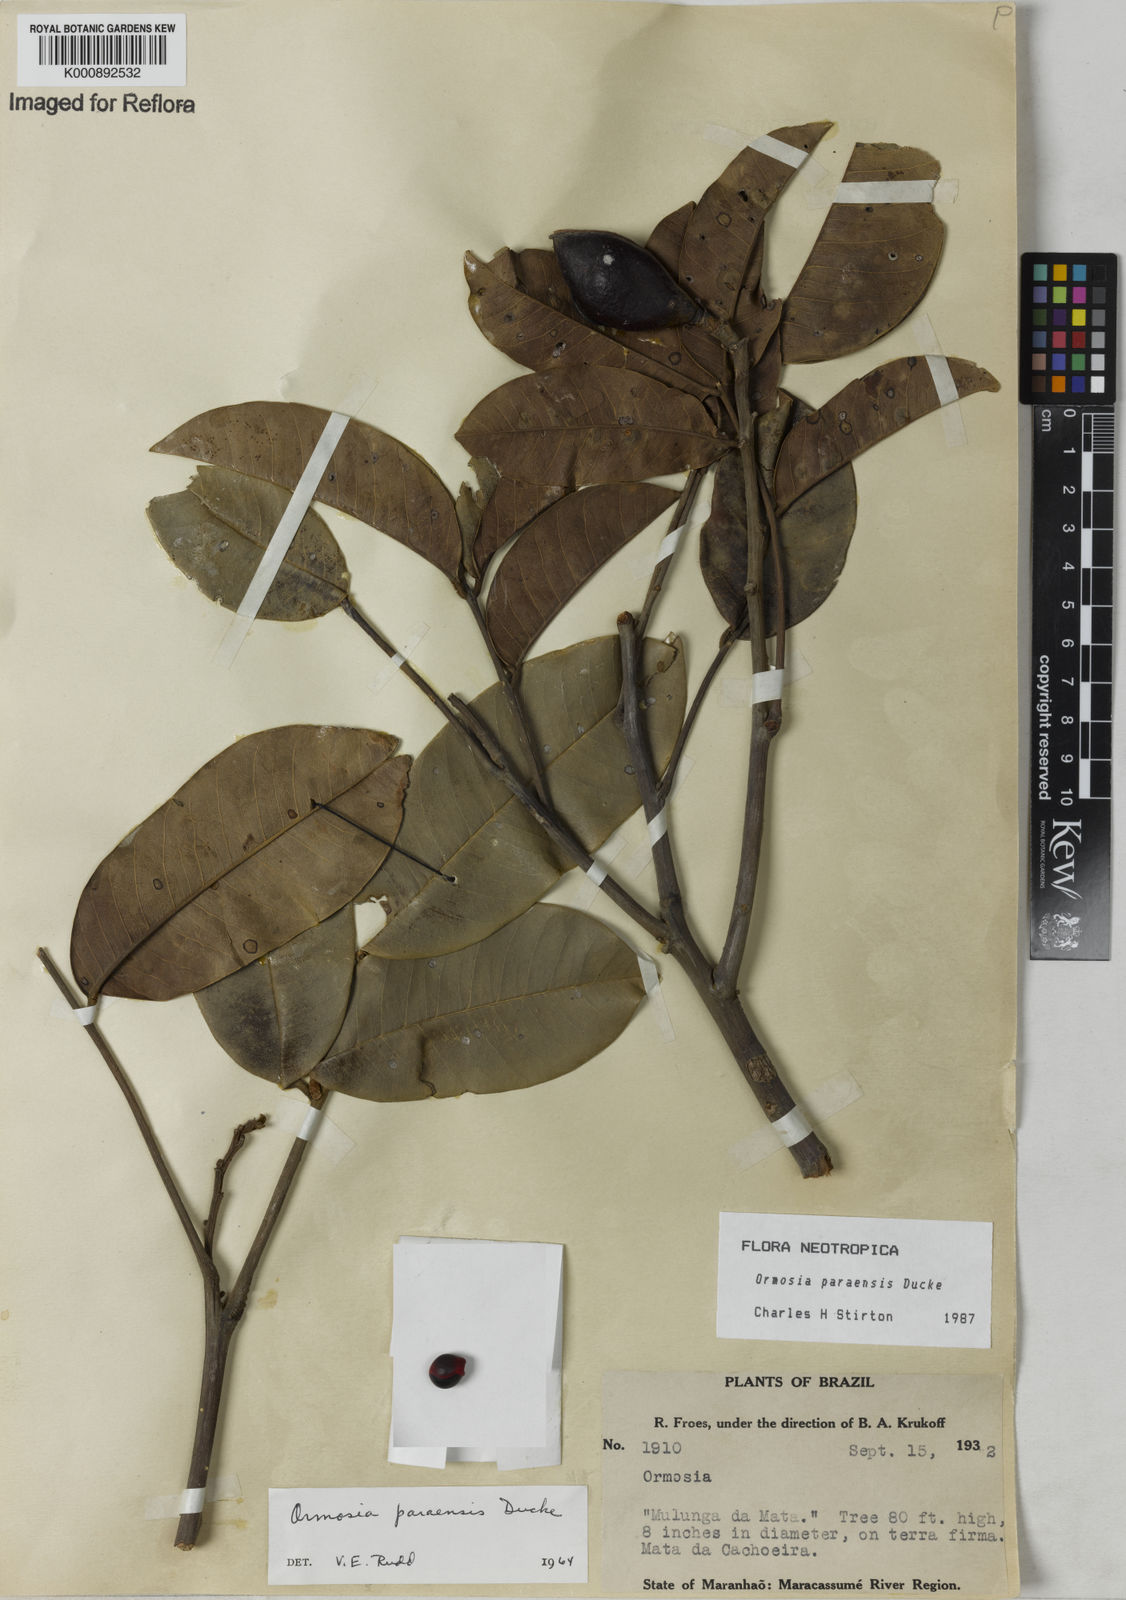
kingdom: Plantae
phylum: Tracheophyta
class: Magnoliopsida
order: Fabales
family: Fabaceae
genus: Ormosia
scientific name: Ormosia paraensis
